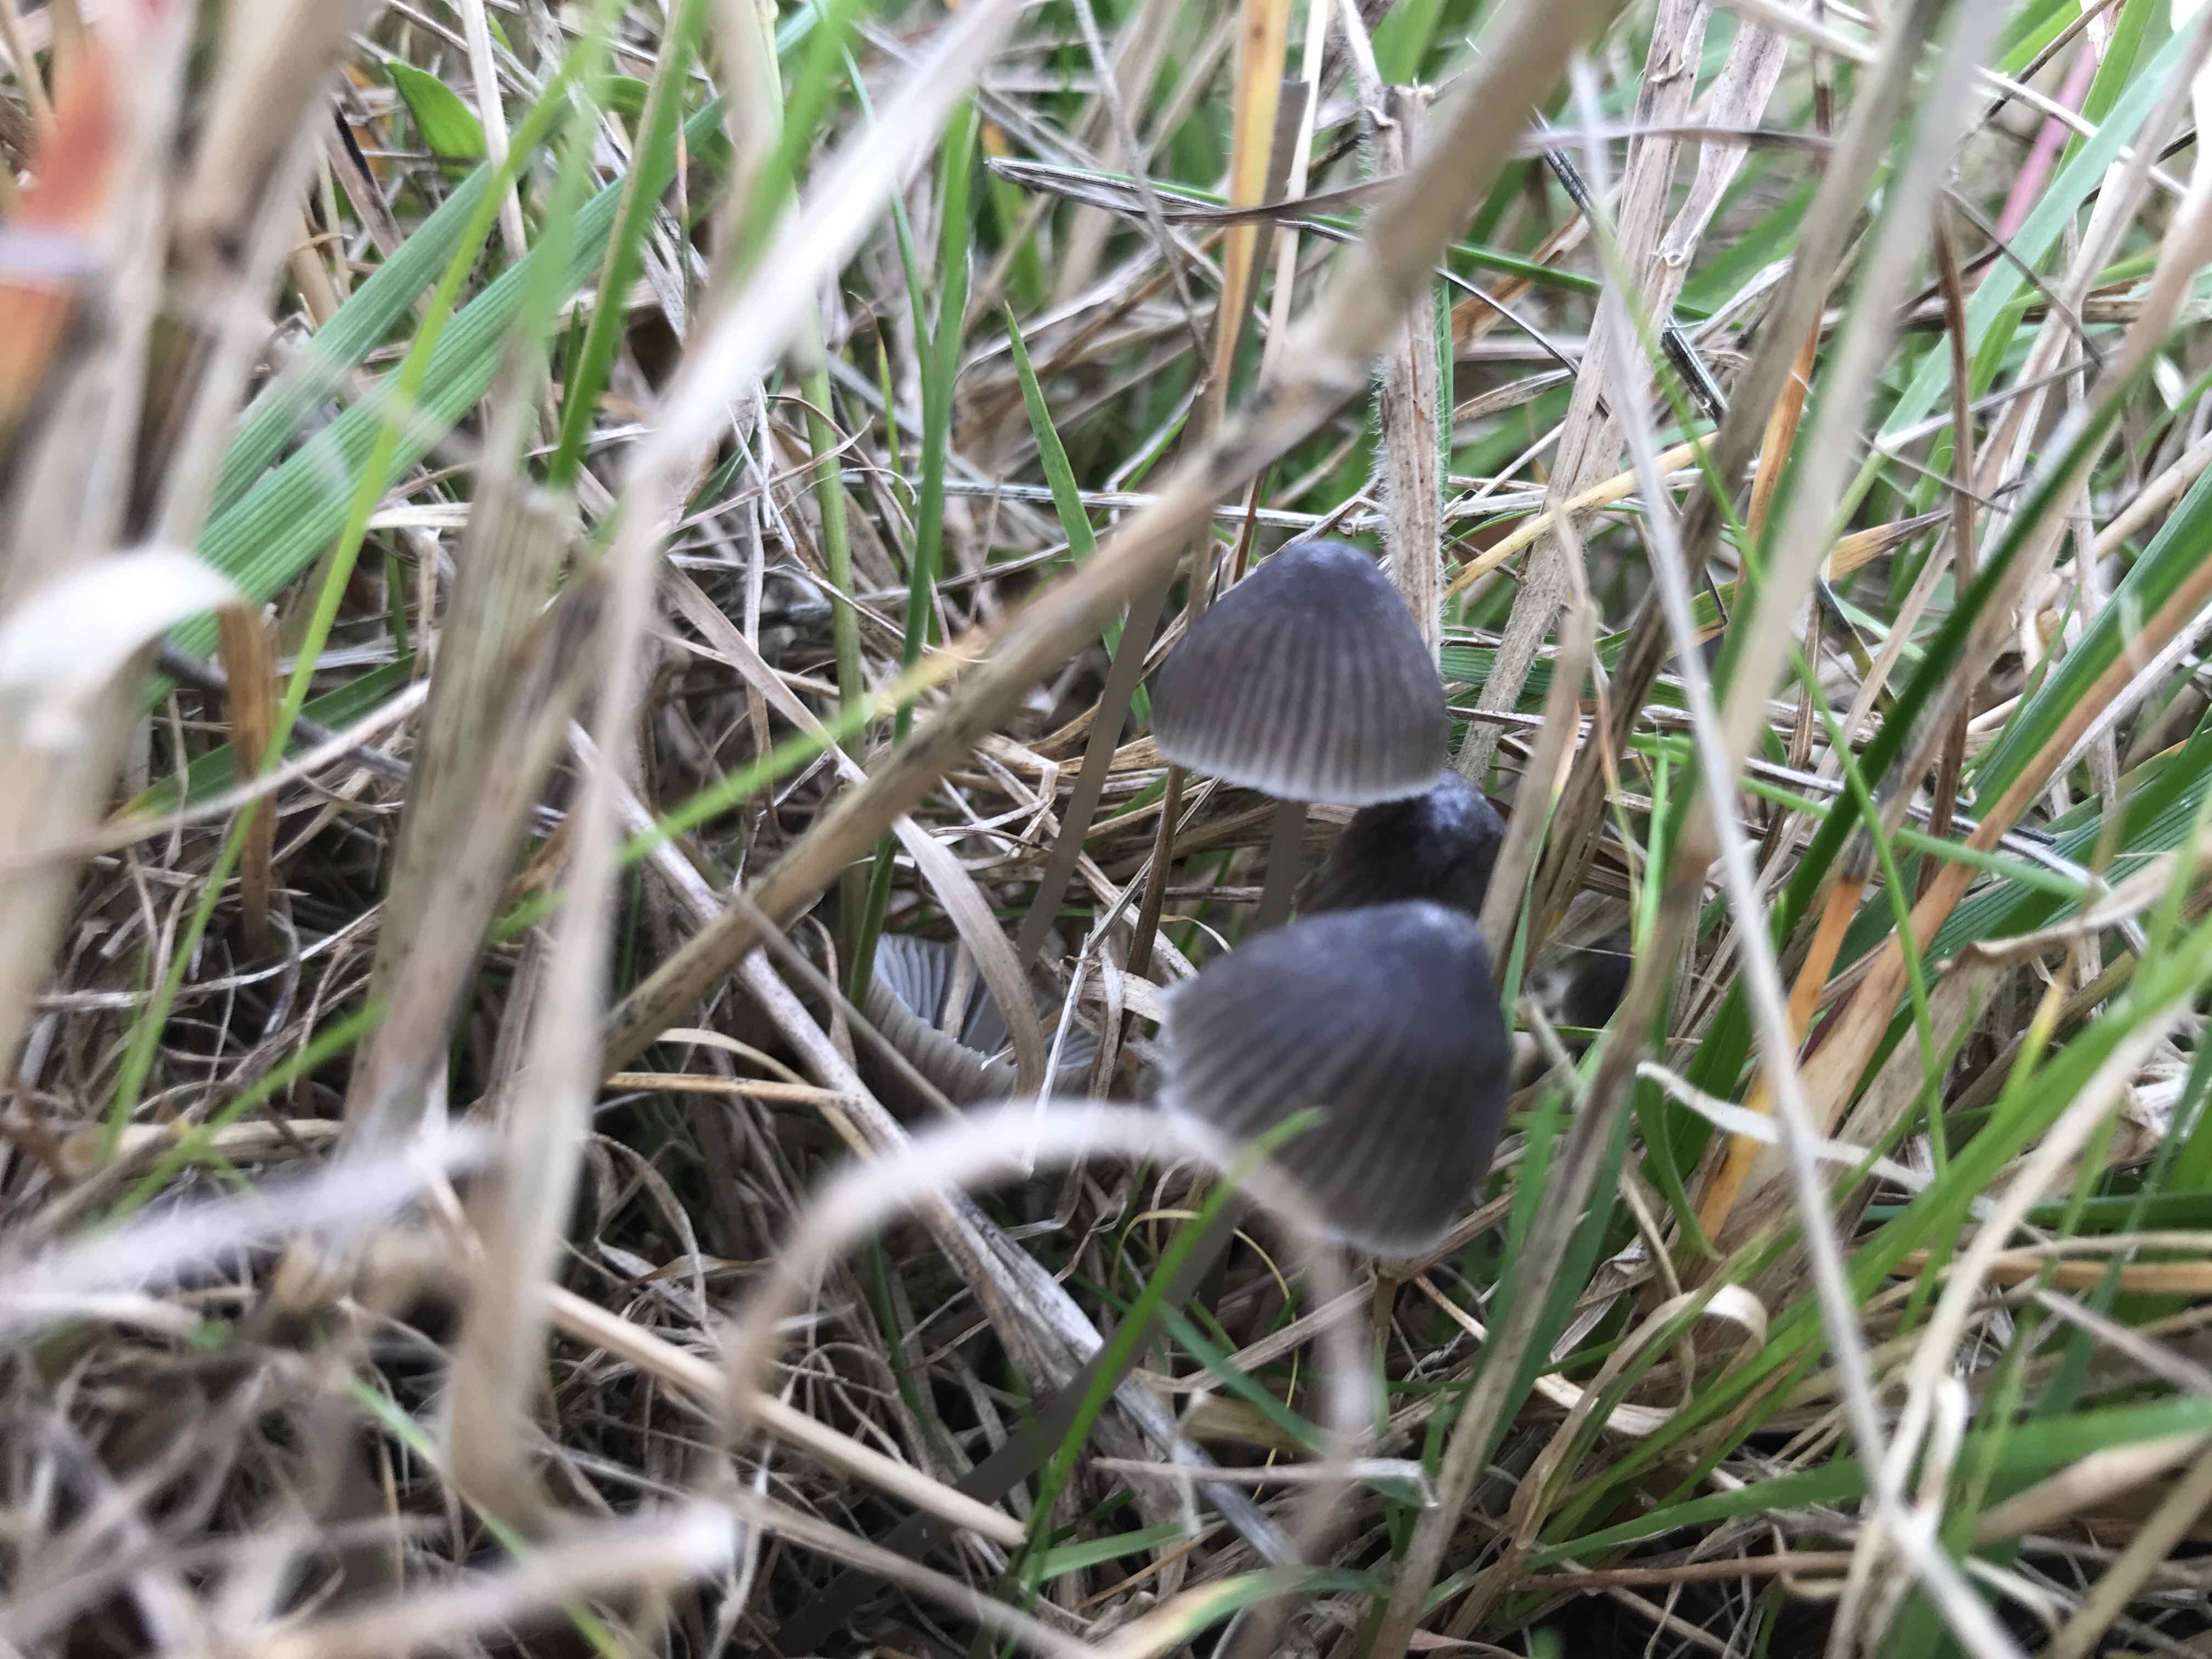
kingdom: Fungi
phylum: Basidiomycota
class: Agaricomycetes
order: Agaricales
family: Mycenaceae
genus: Mycena
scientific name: Mycena aetites
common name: plæne-huesvamp
